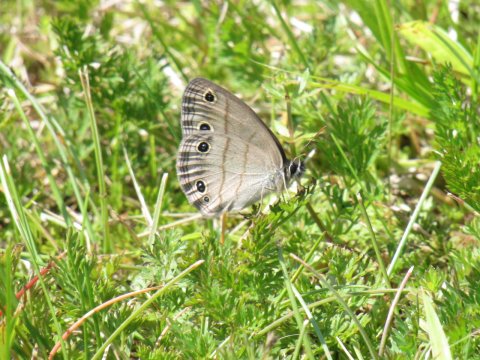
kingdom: Animalia
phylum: Arthropoda
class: Insecta
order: Lepidoptera
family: Nymphalidae
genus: Euptychia
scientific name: Euptychia cymela
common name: Little Wood Satyr
